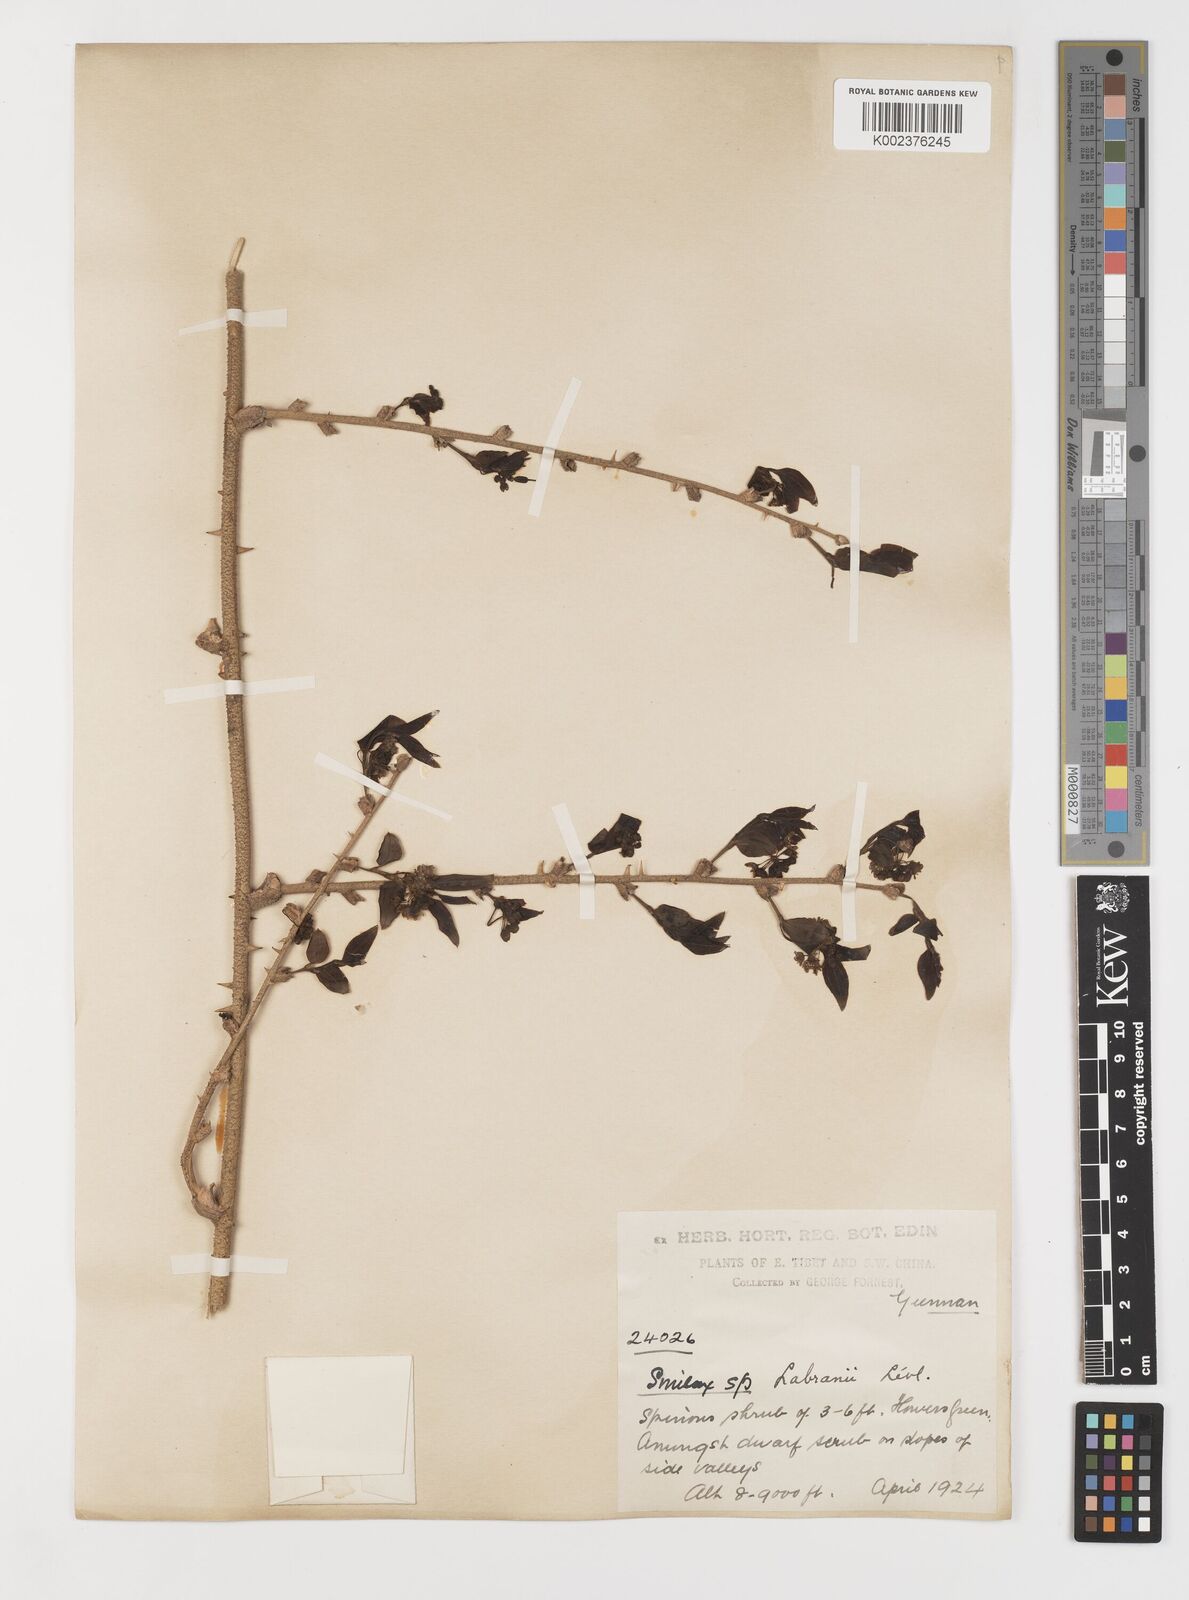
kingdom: Plantae
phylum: Tracheophyta
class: Liliopsida
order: Liliales
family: Smilacaceae
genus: Smilax
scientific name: Smilax lebrunii
